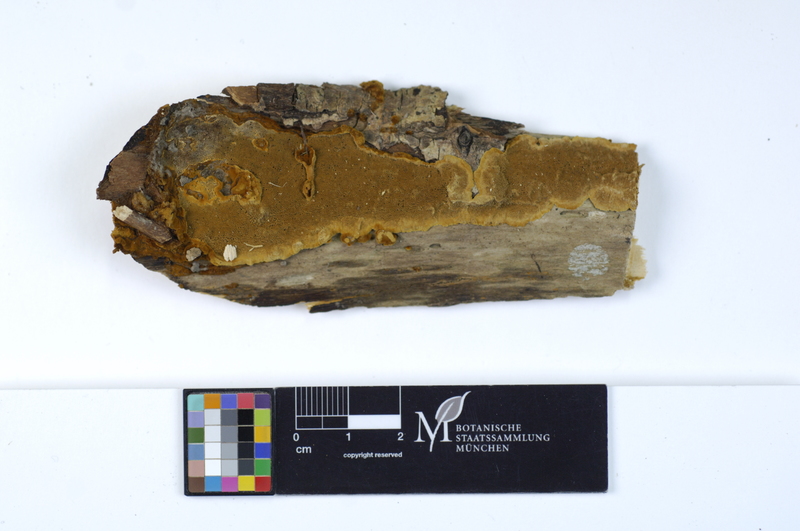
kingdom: Fungi
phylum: Basidiomycota
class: Agaricomycetes
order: Hymenochaetales
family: Hymenochaetaceae
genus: Phellinopsis
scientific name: Phellinopsis conchata
